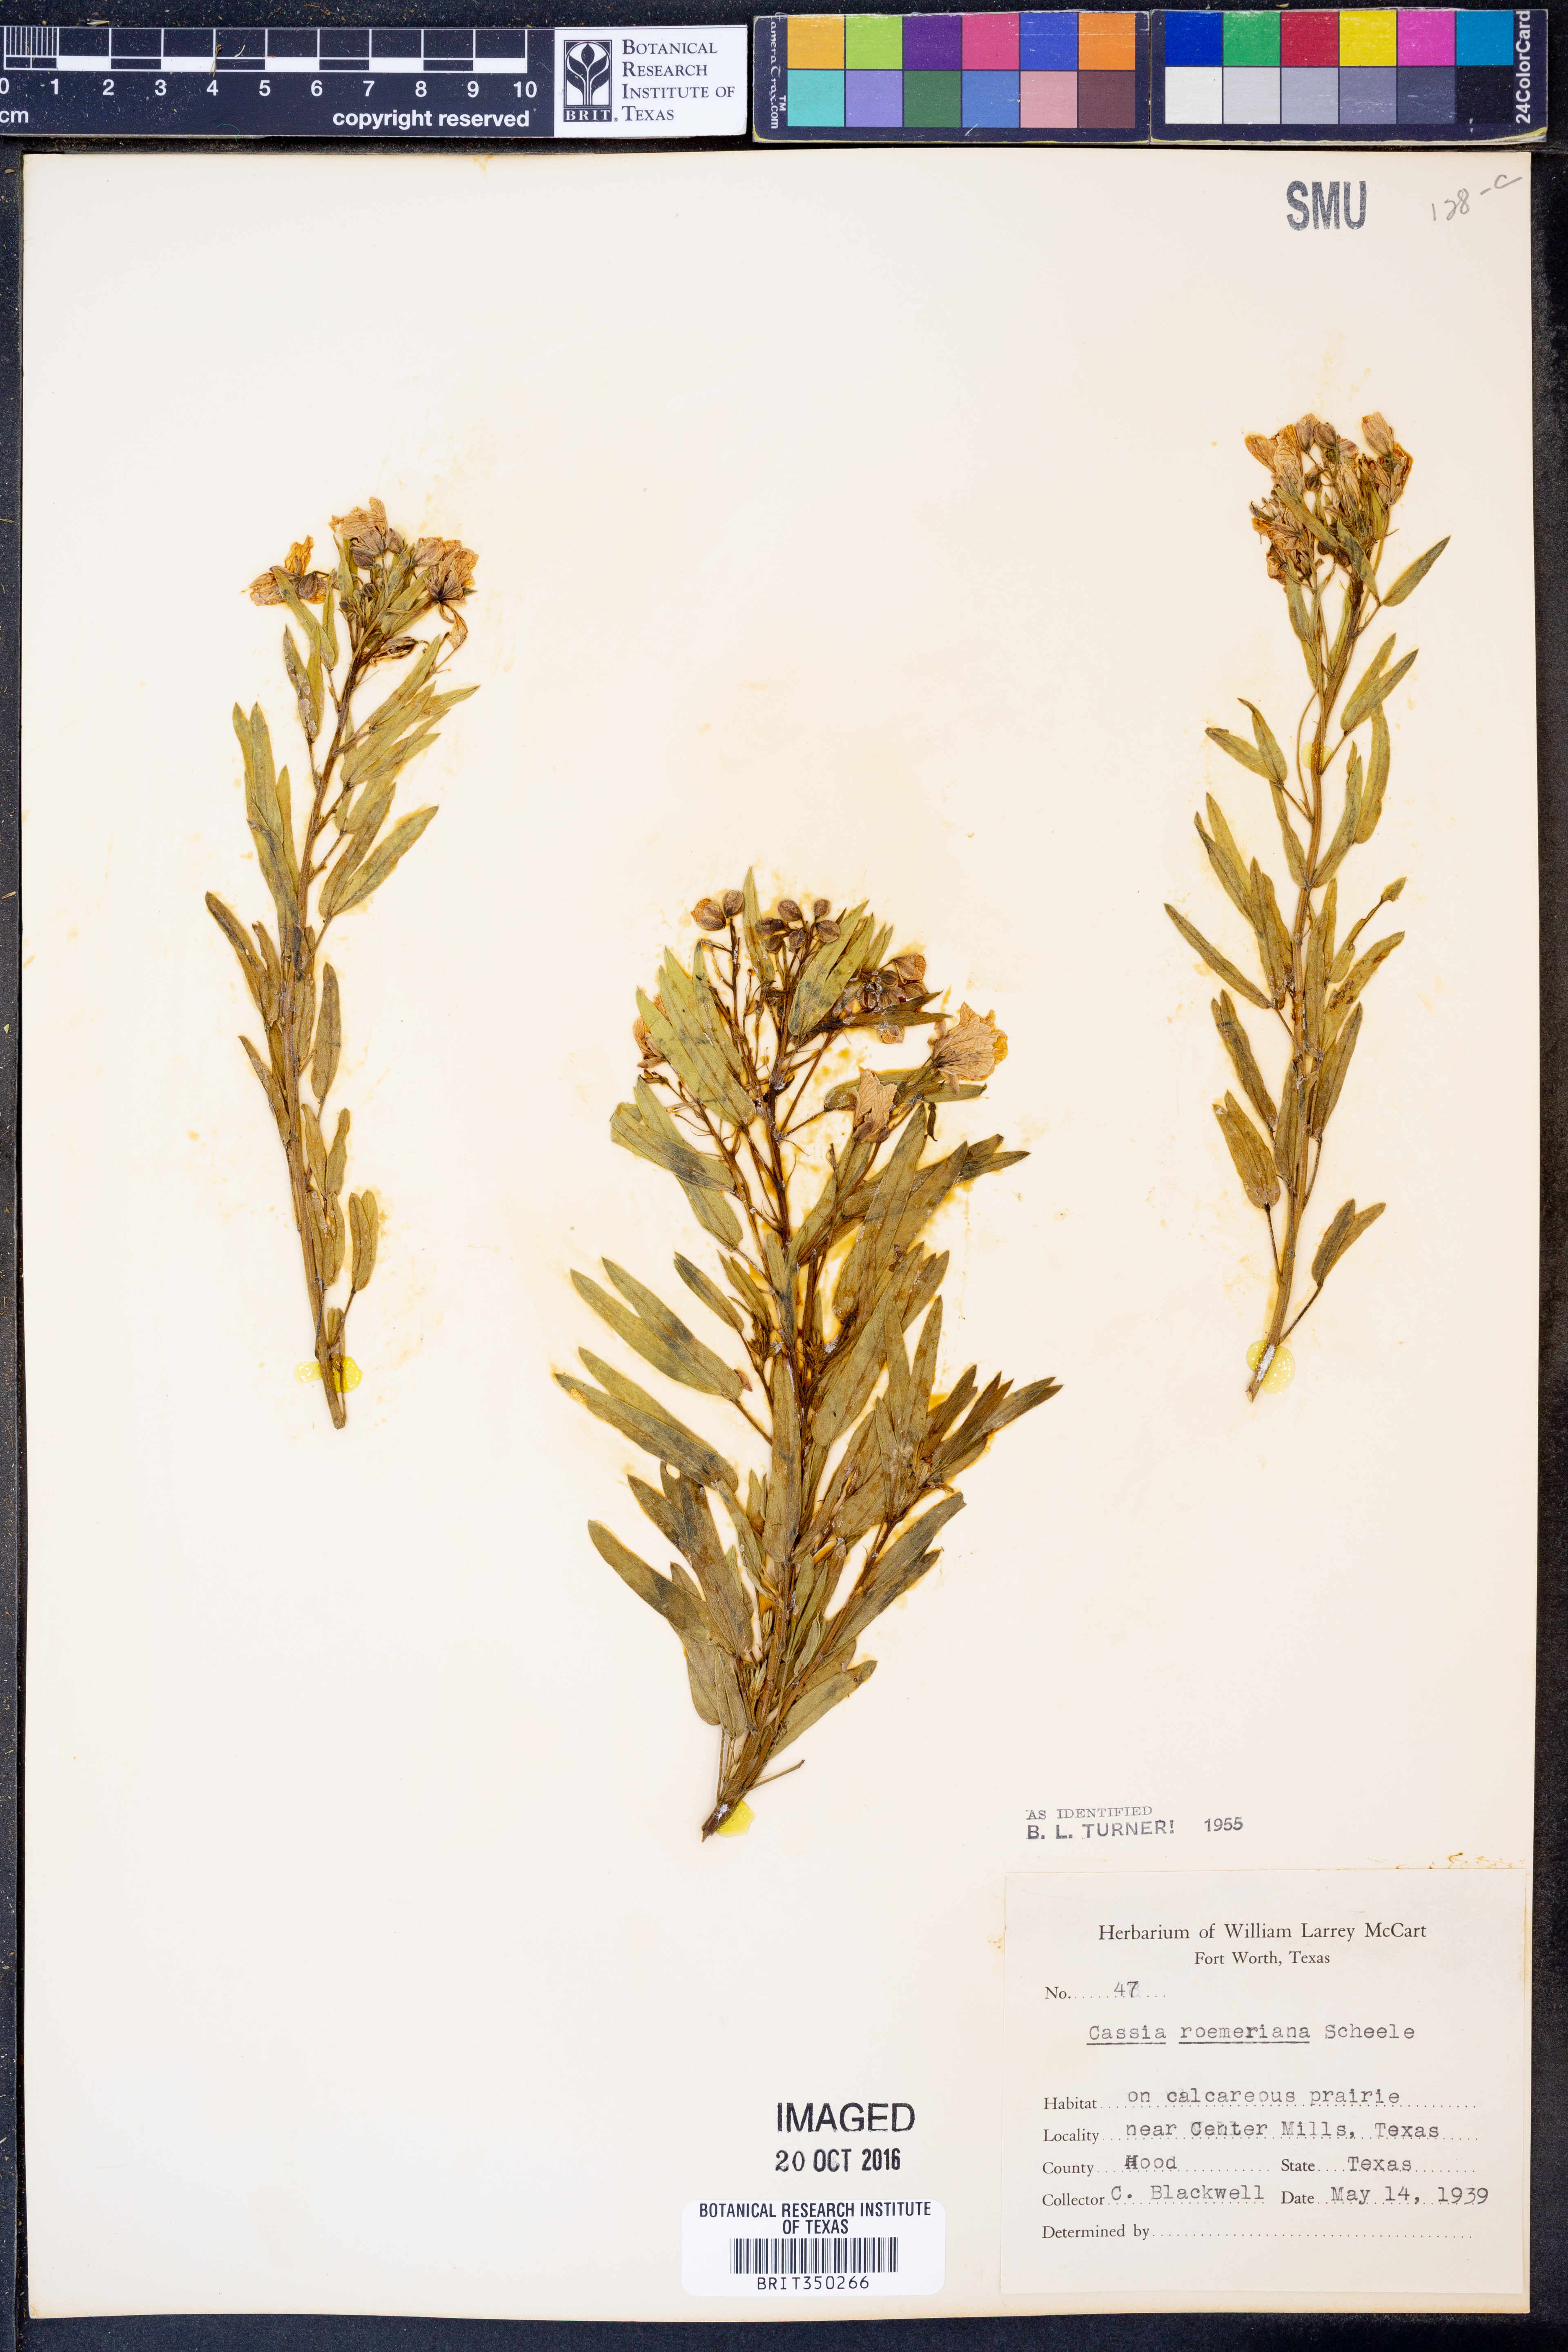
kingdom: Plantae
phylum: Tracheophyta
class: Magnoliopsida
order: Fabales
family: Fabaceae
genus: Senna
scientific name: Senna roemeriana
